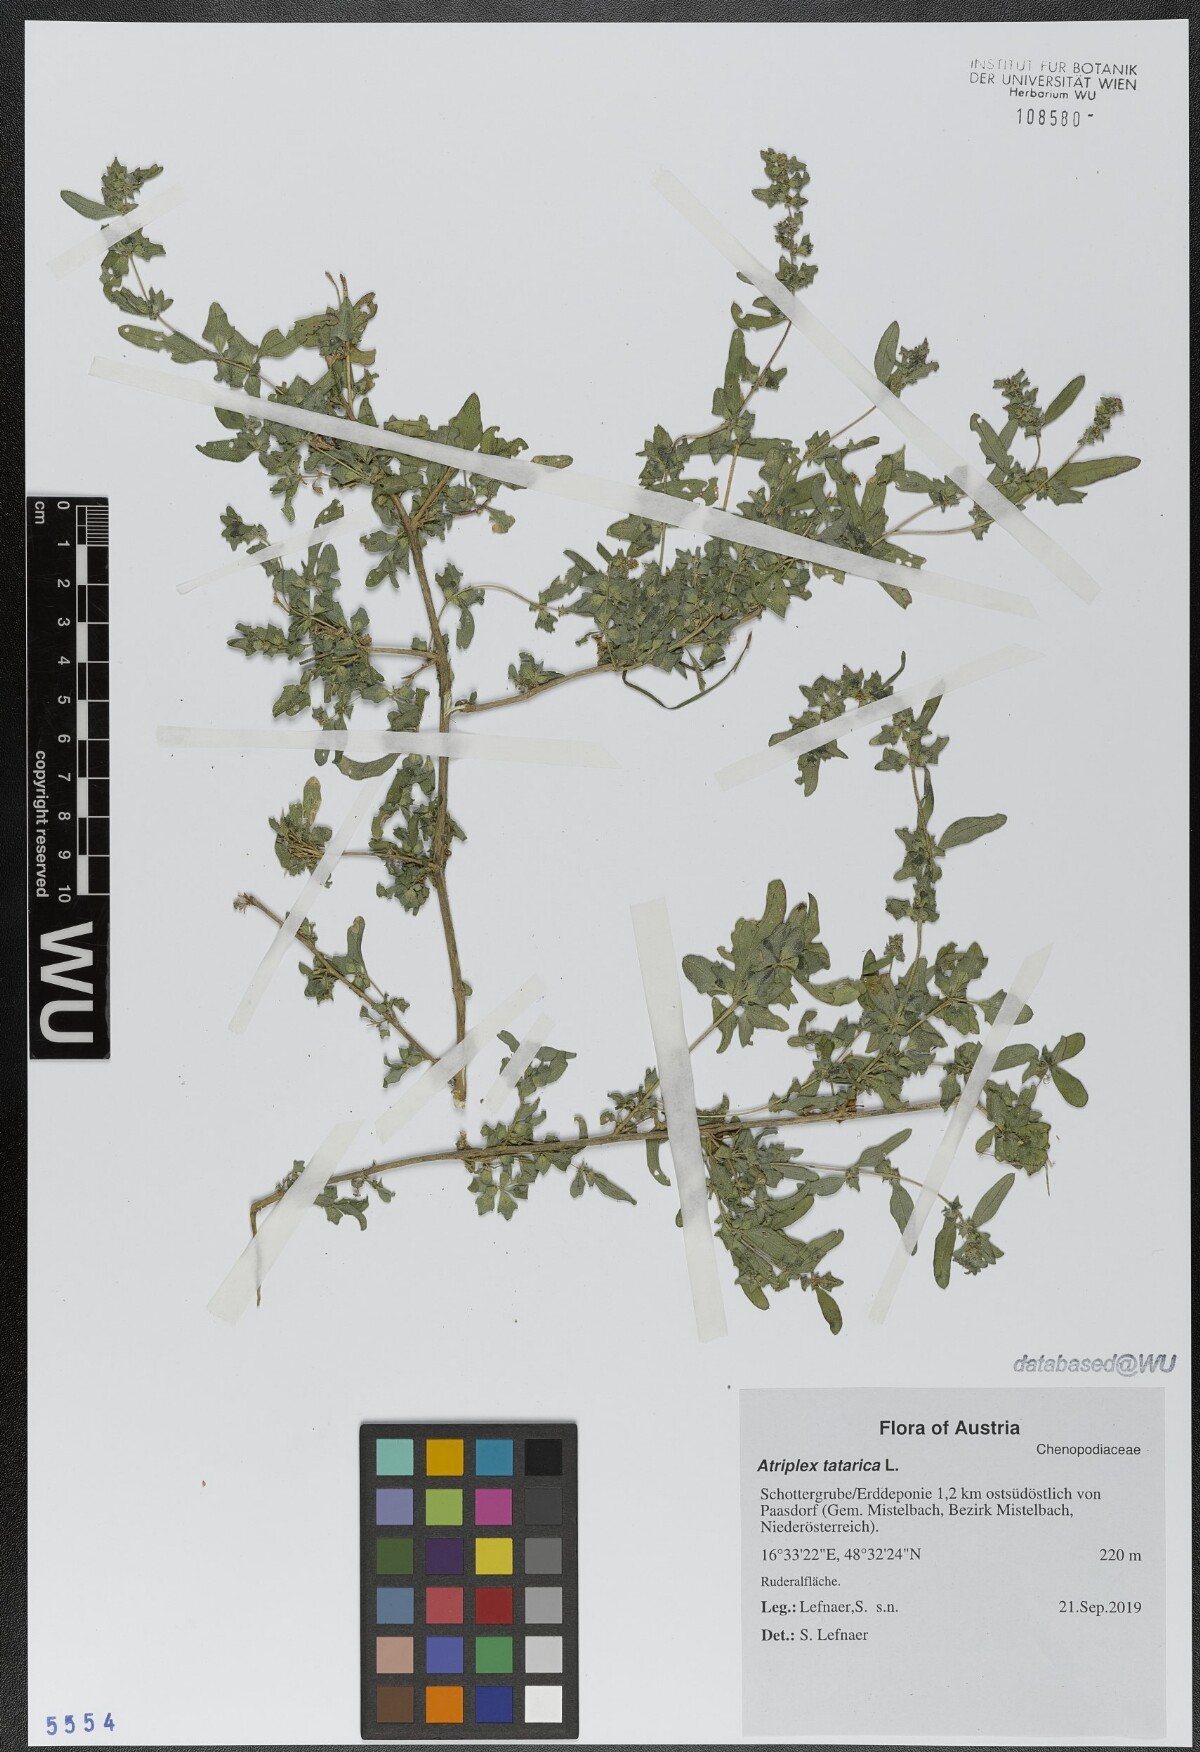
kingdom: Plantae
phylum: Tracheophyta
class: Magnoliopsida
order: Caryophyllales
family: Amaranthaceae
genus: Atriplex
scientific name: Atriplex tatarica
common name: Tatarian orache
